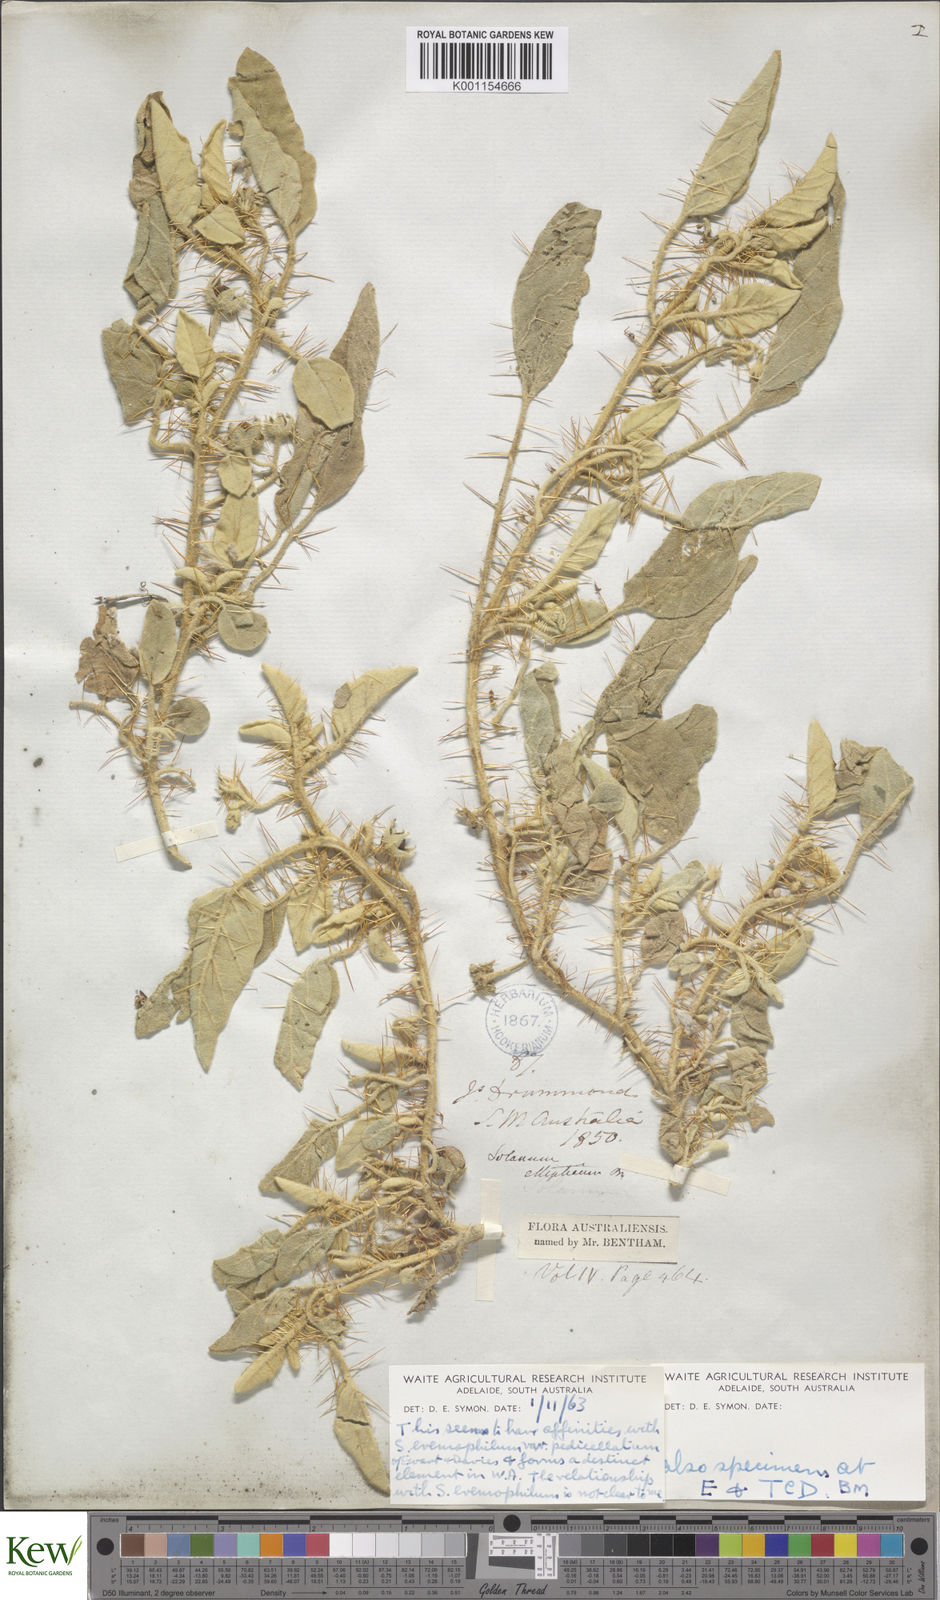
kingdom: Plantae
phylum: Tracheophyta
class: Magnoliopsida
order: Solanales
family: Solanaceae
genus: Solanum
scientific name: Solanum
